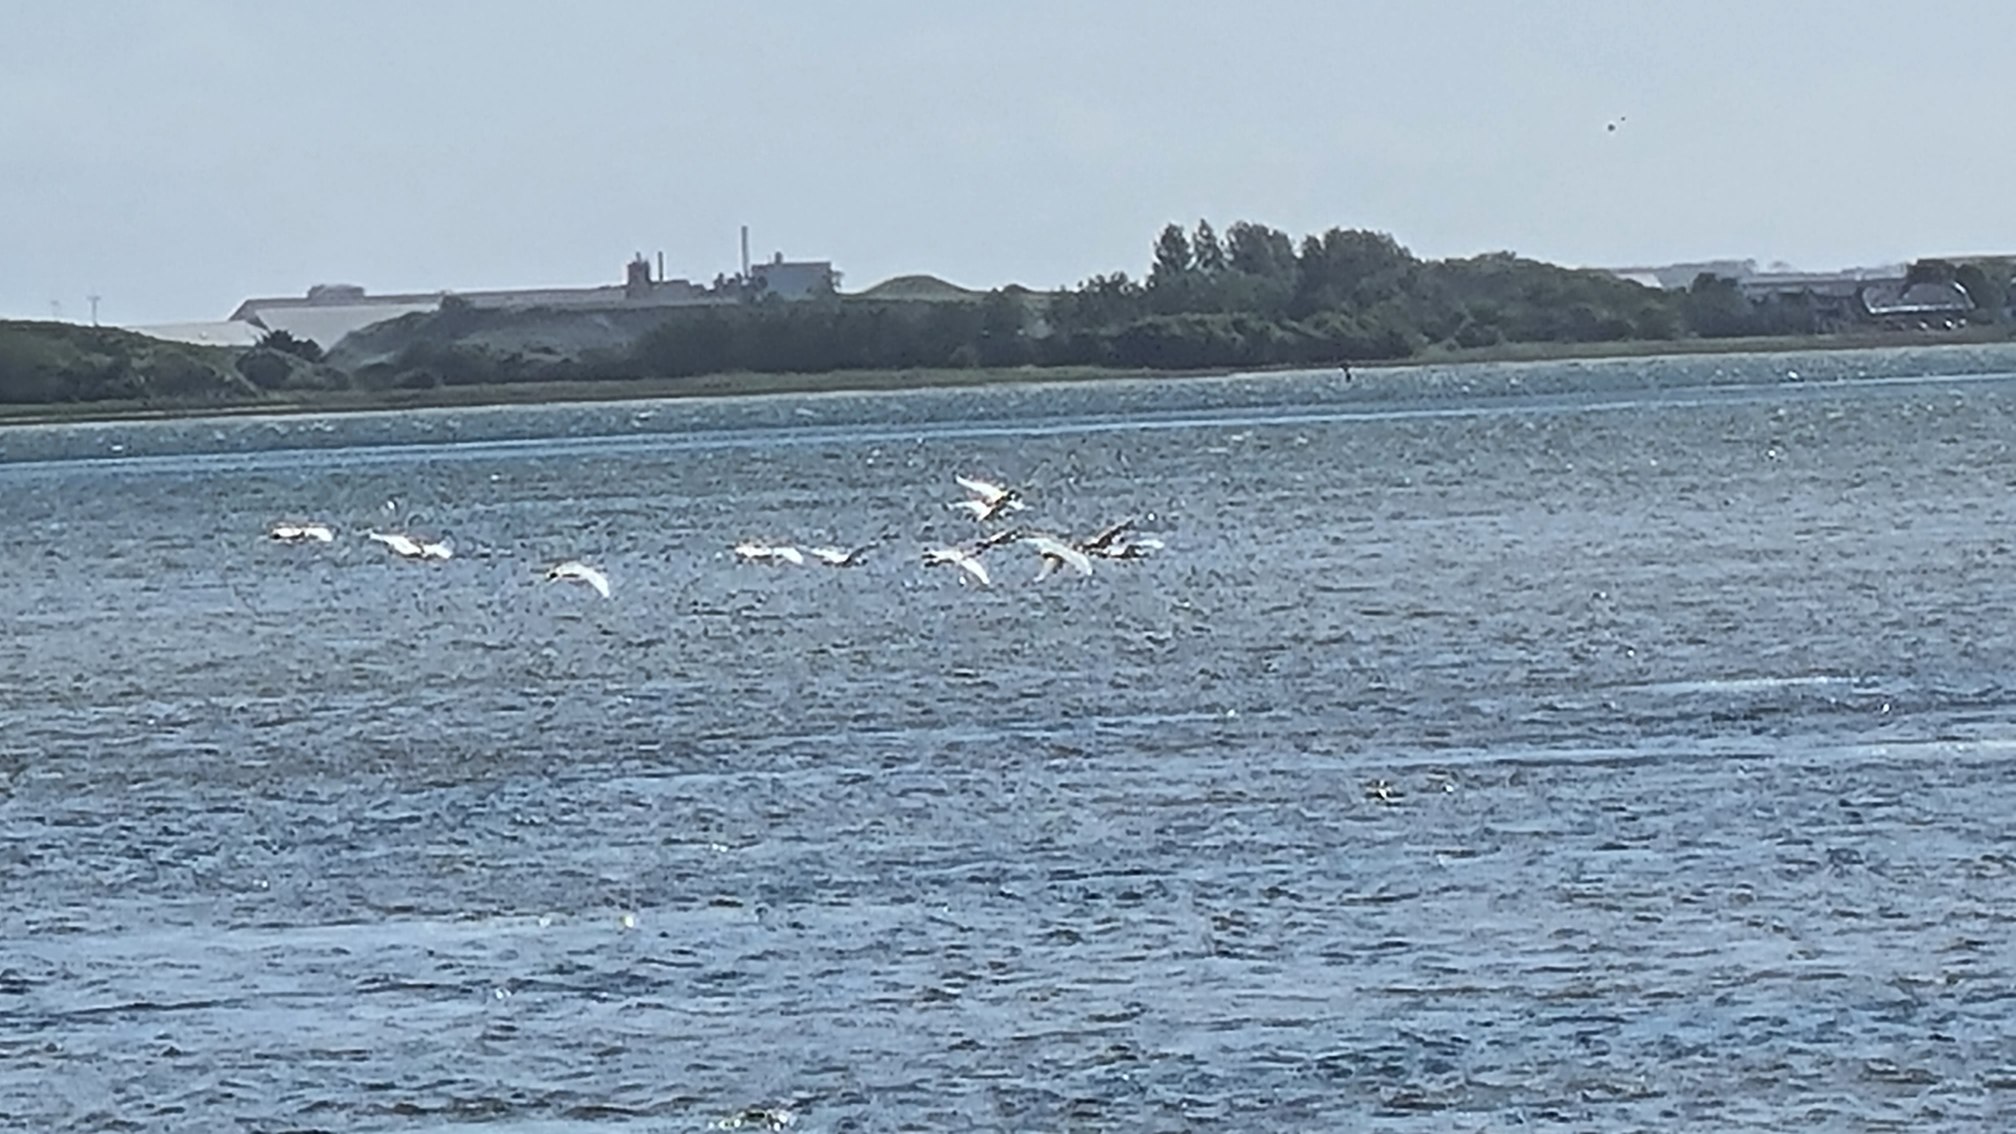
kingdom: Animalia
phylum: Chordata
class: Aves
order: Pelecaniformes
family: Threskiornithidae
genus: Platalea
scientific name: Platalea leucorodia
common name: Skestork
